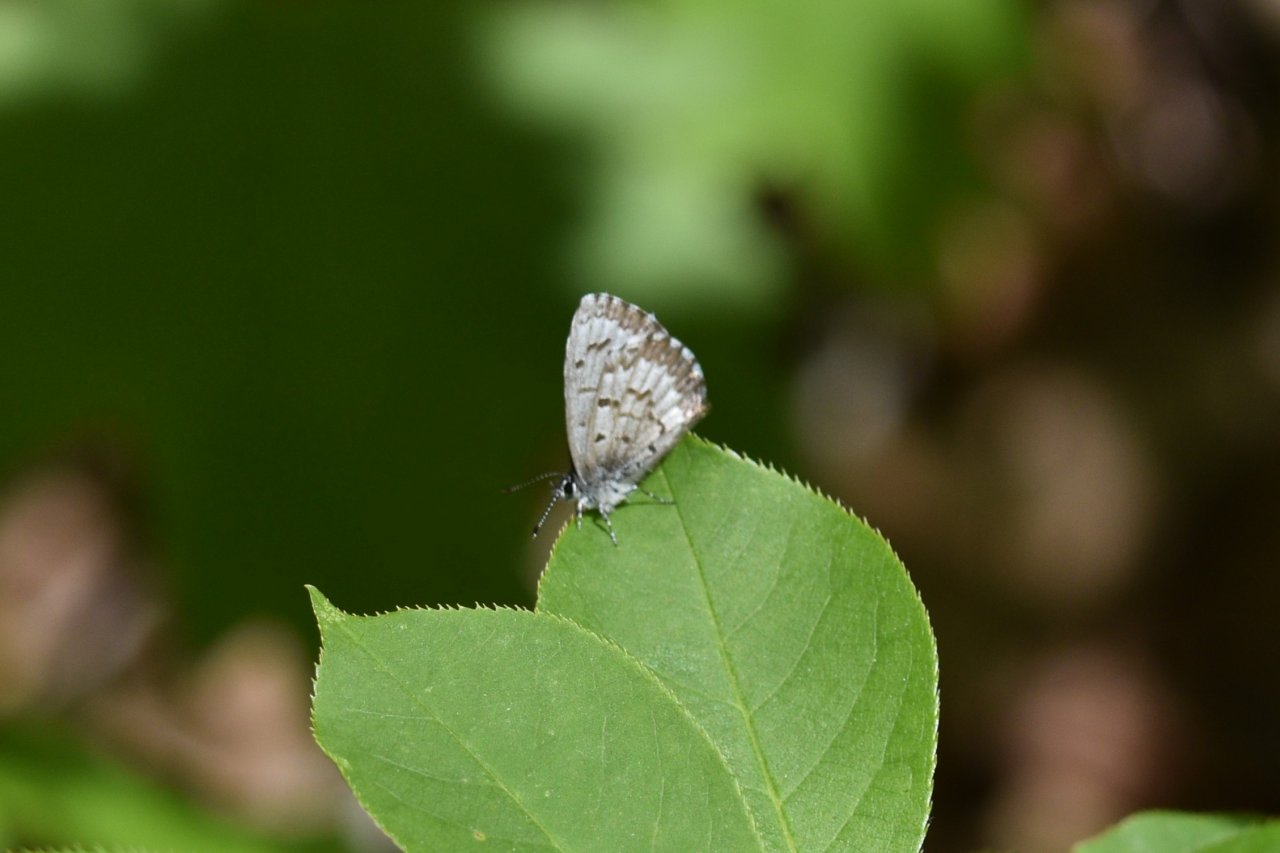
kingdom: Animalia
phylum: Arthropoda
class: Insecta
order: Lepidoptera
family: Lycaenidae
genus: Celastrina
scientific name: Celastrina lucia
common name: Northern Spring Azure
